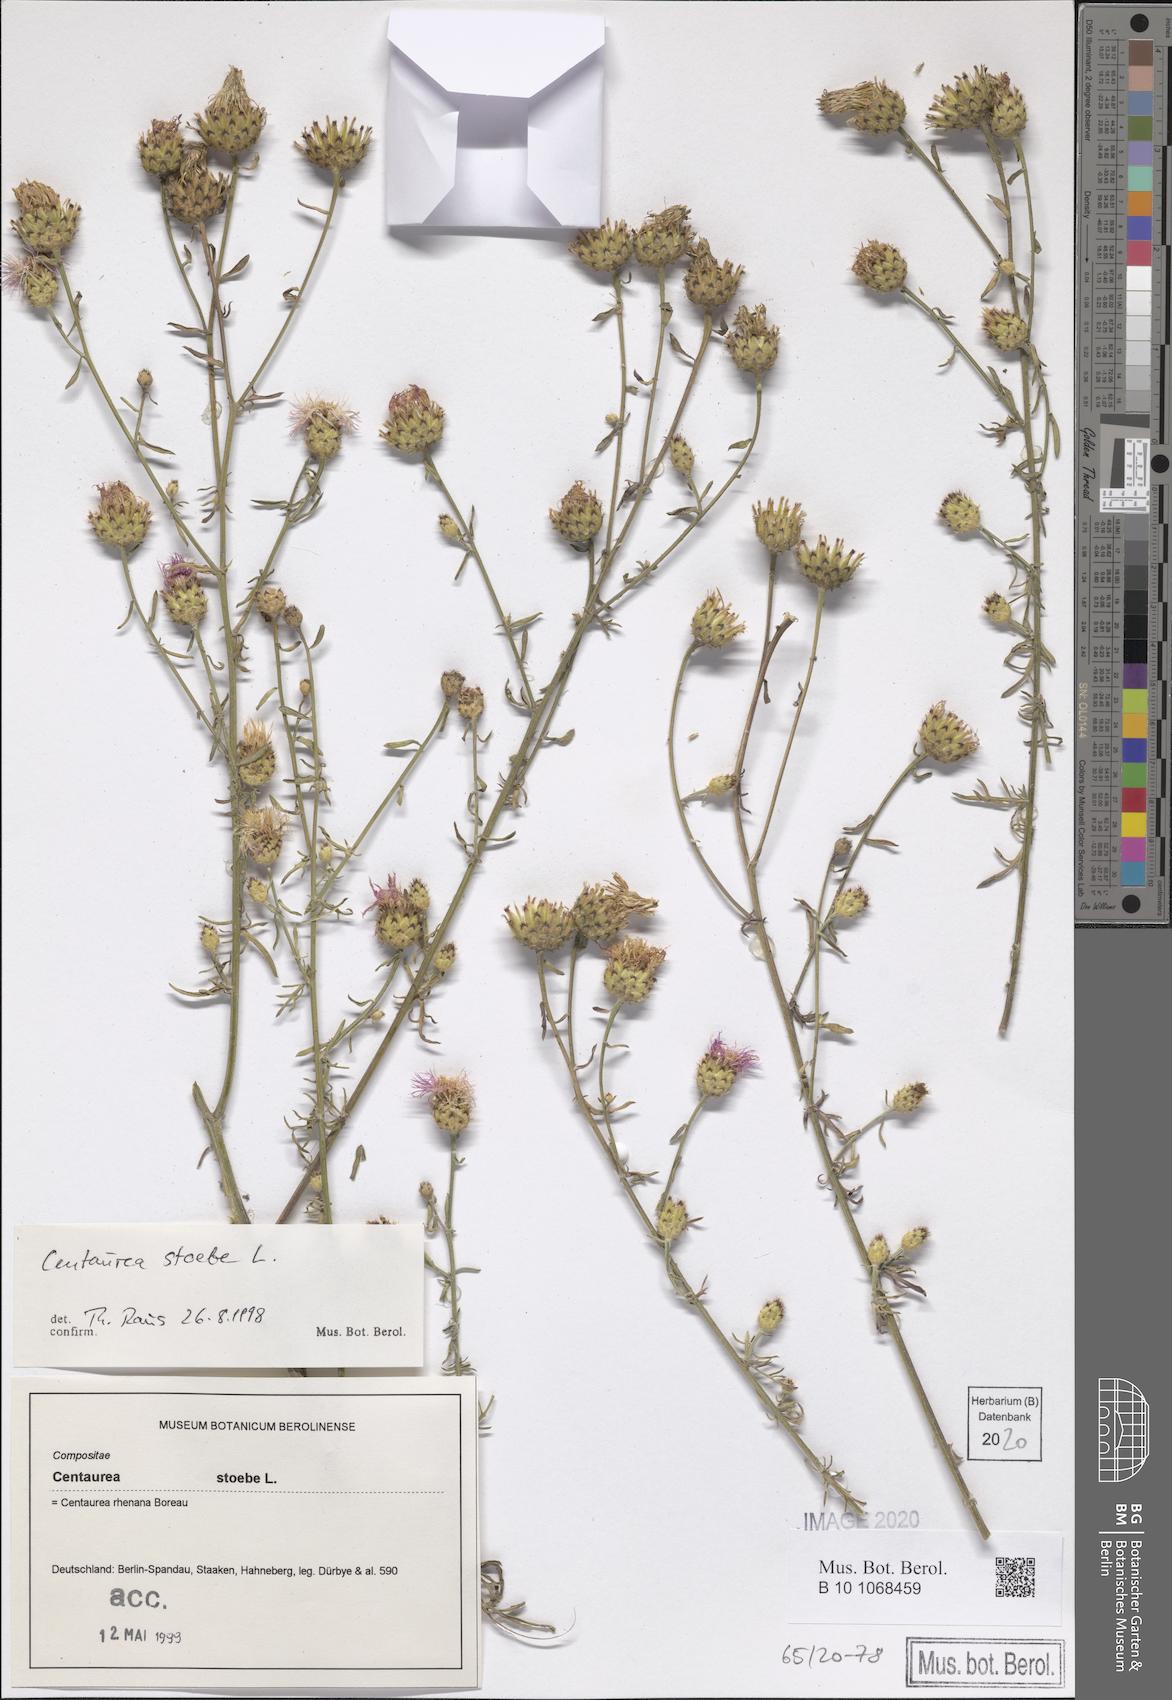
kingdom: Plantae
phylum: Tracheophyta
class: Magnoliopsida
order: Asterales
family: Asteraceae
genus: Centaurea
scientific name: Centaurea stoebe
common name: Spotted knapweed
